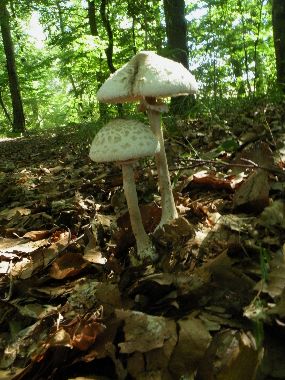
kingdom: Fungi
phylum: Basidiomycota
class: Agaricomycetes
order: Agaricales
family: Agaricaceae
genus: Macrolepiota
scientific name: Macrolepiota mastoidea
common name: puklet kæmpeparasolhat
